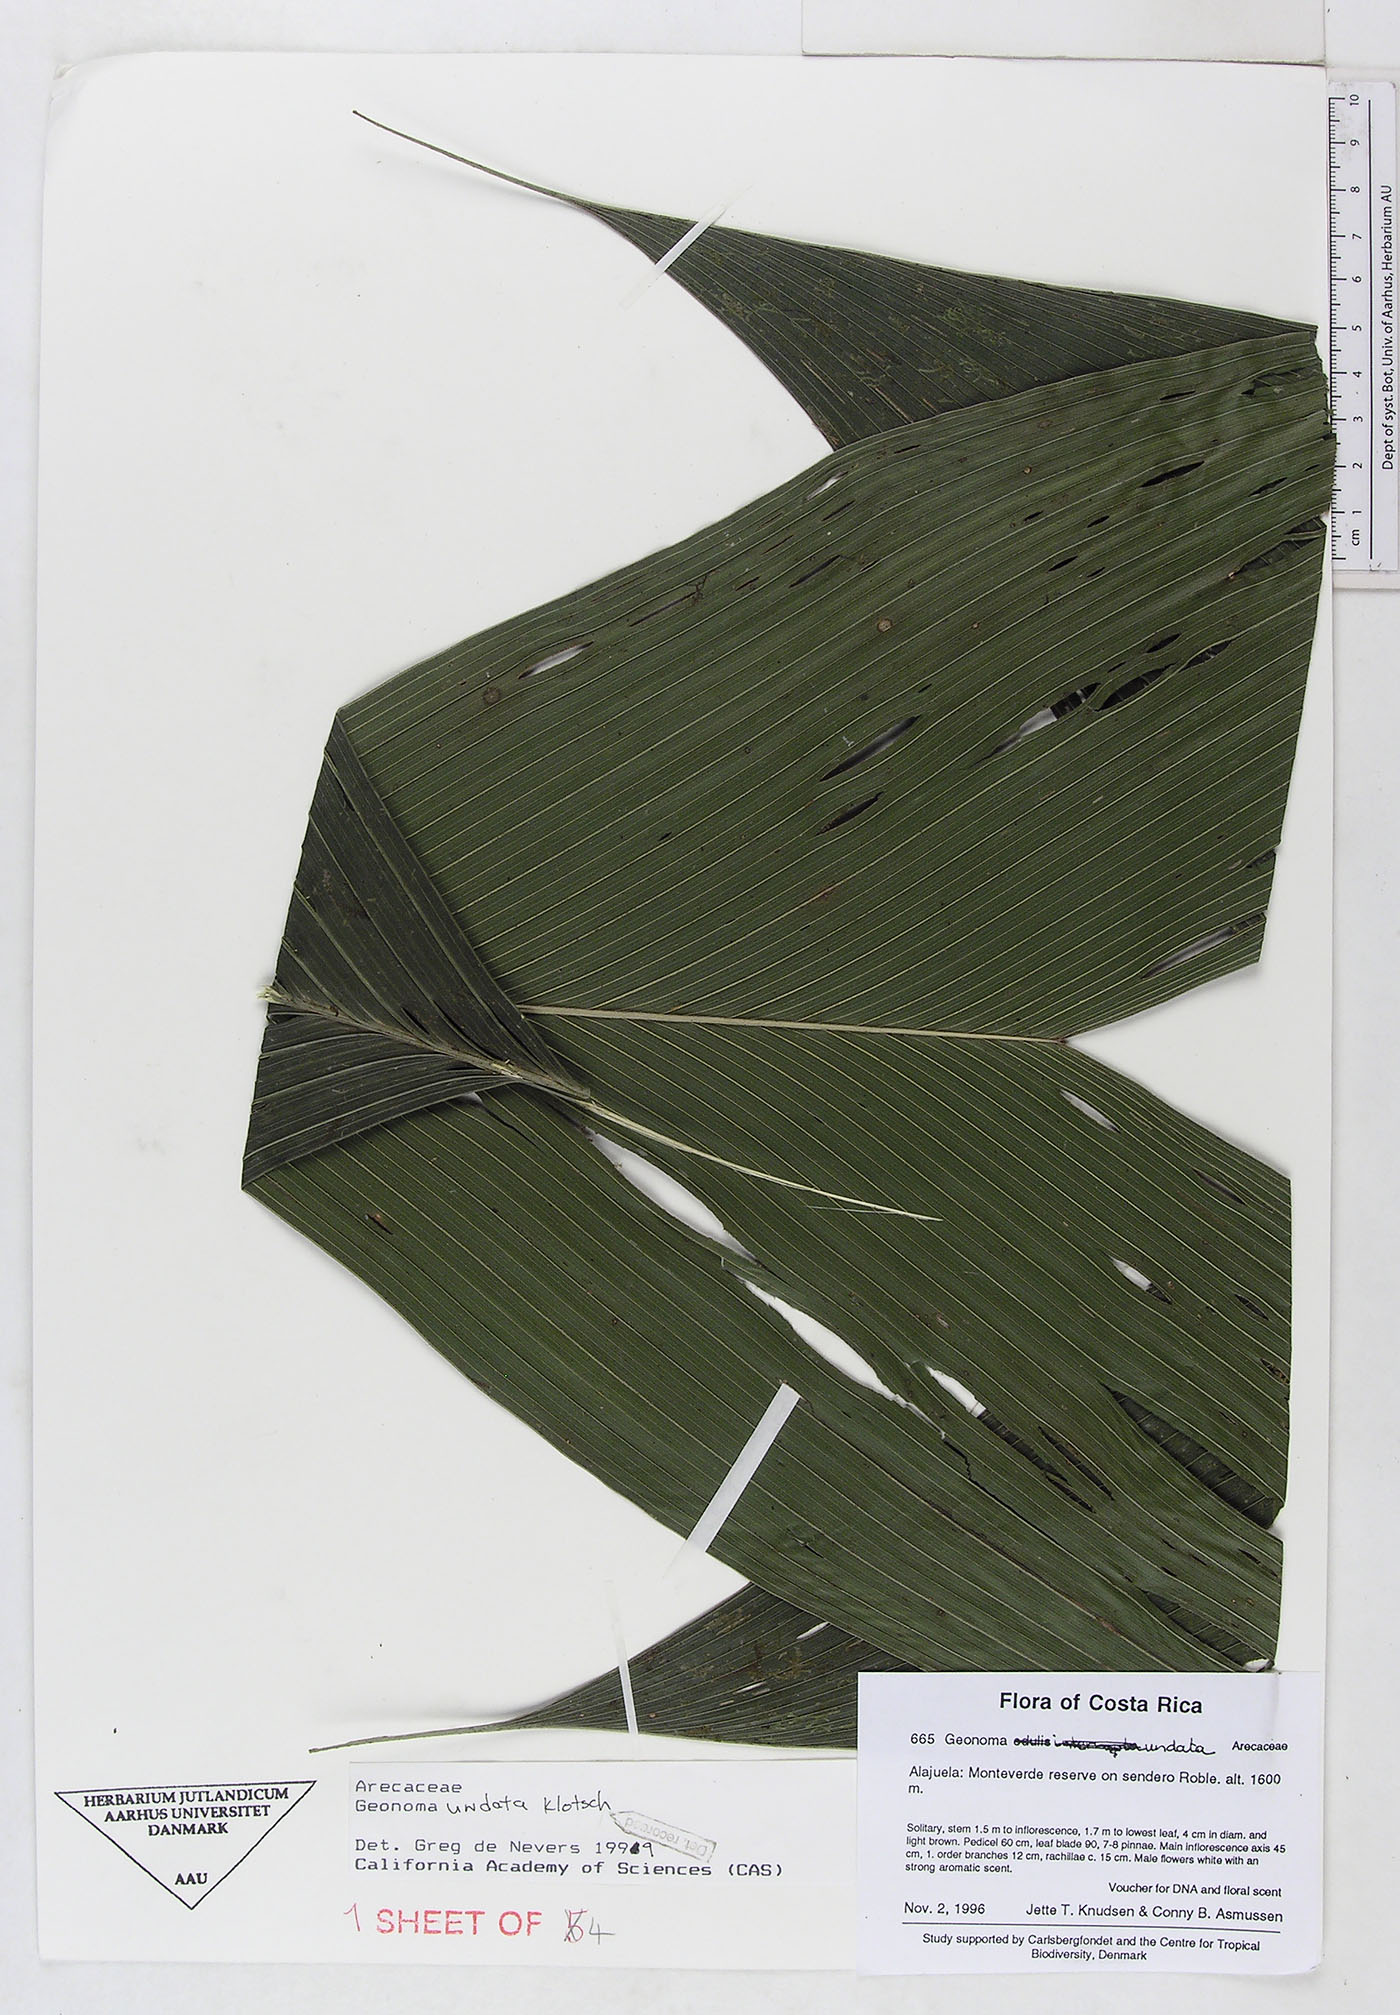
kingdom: Plantae
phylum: Tracheophyta
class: Liliopsida
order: Arecales
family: Arecaceae
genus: Geonoma
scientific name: Geonoma undata
